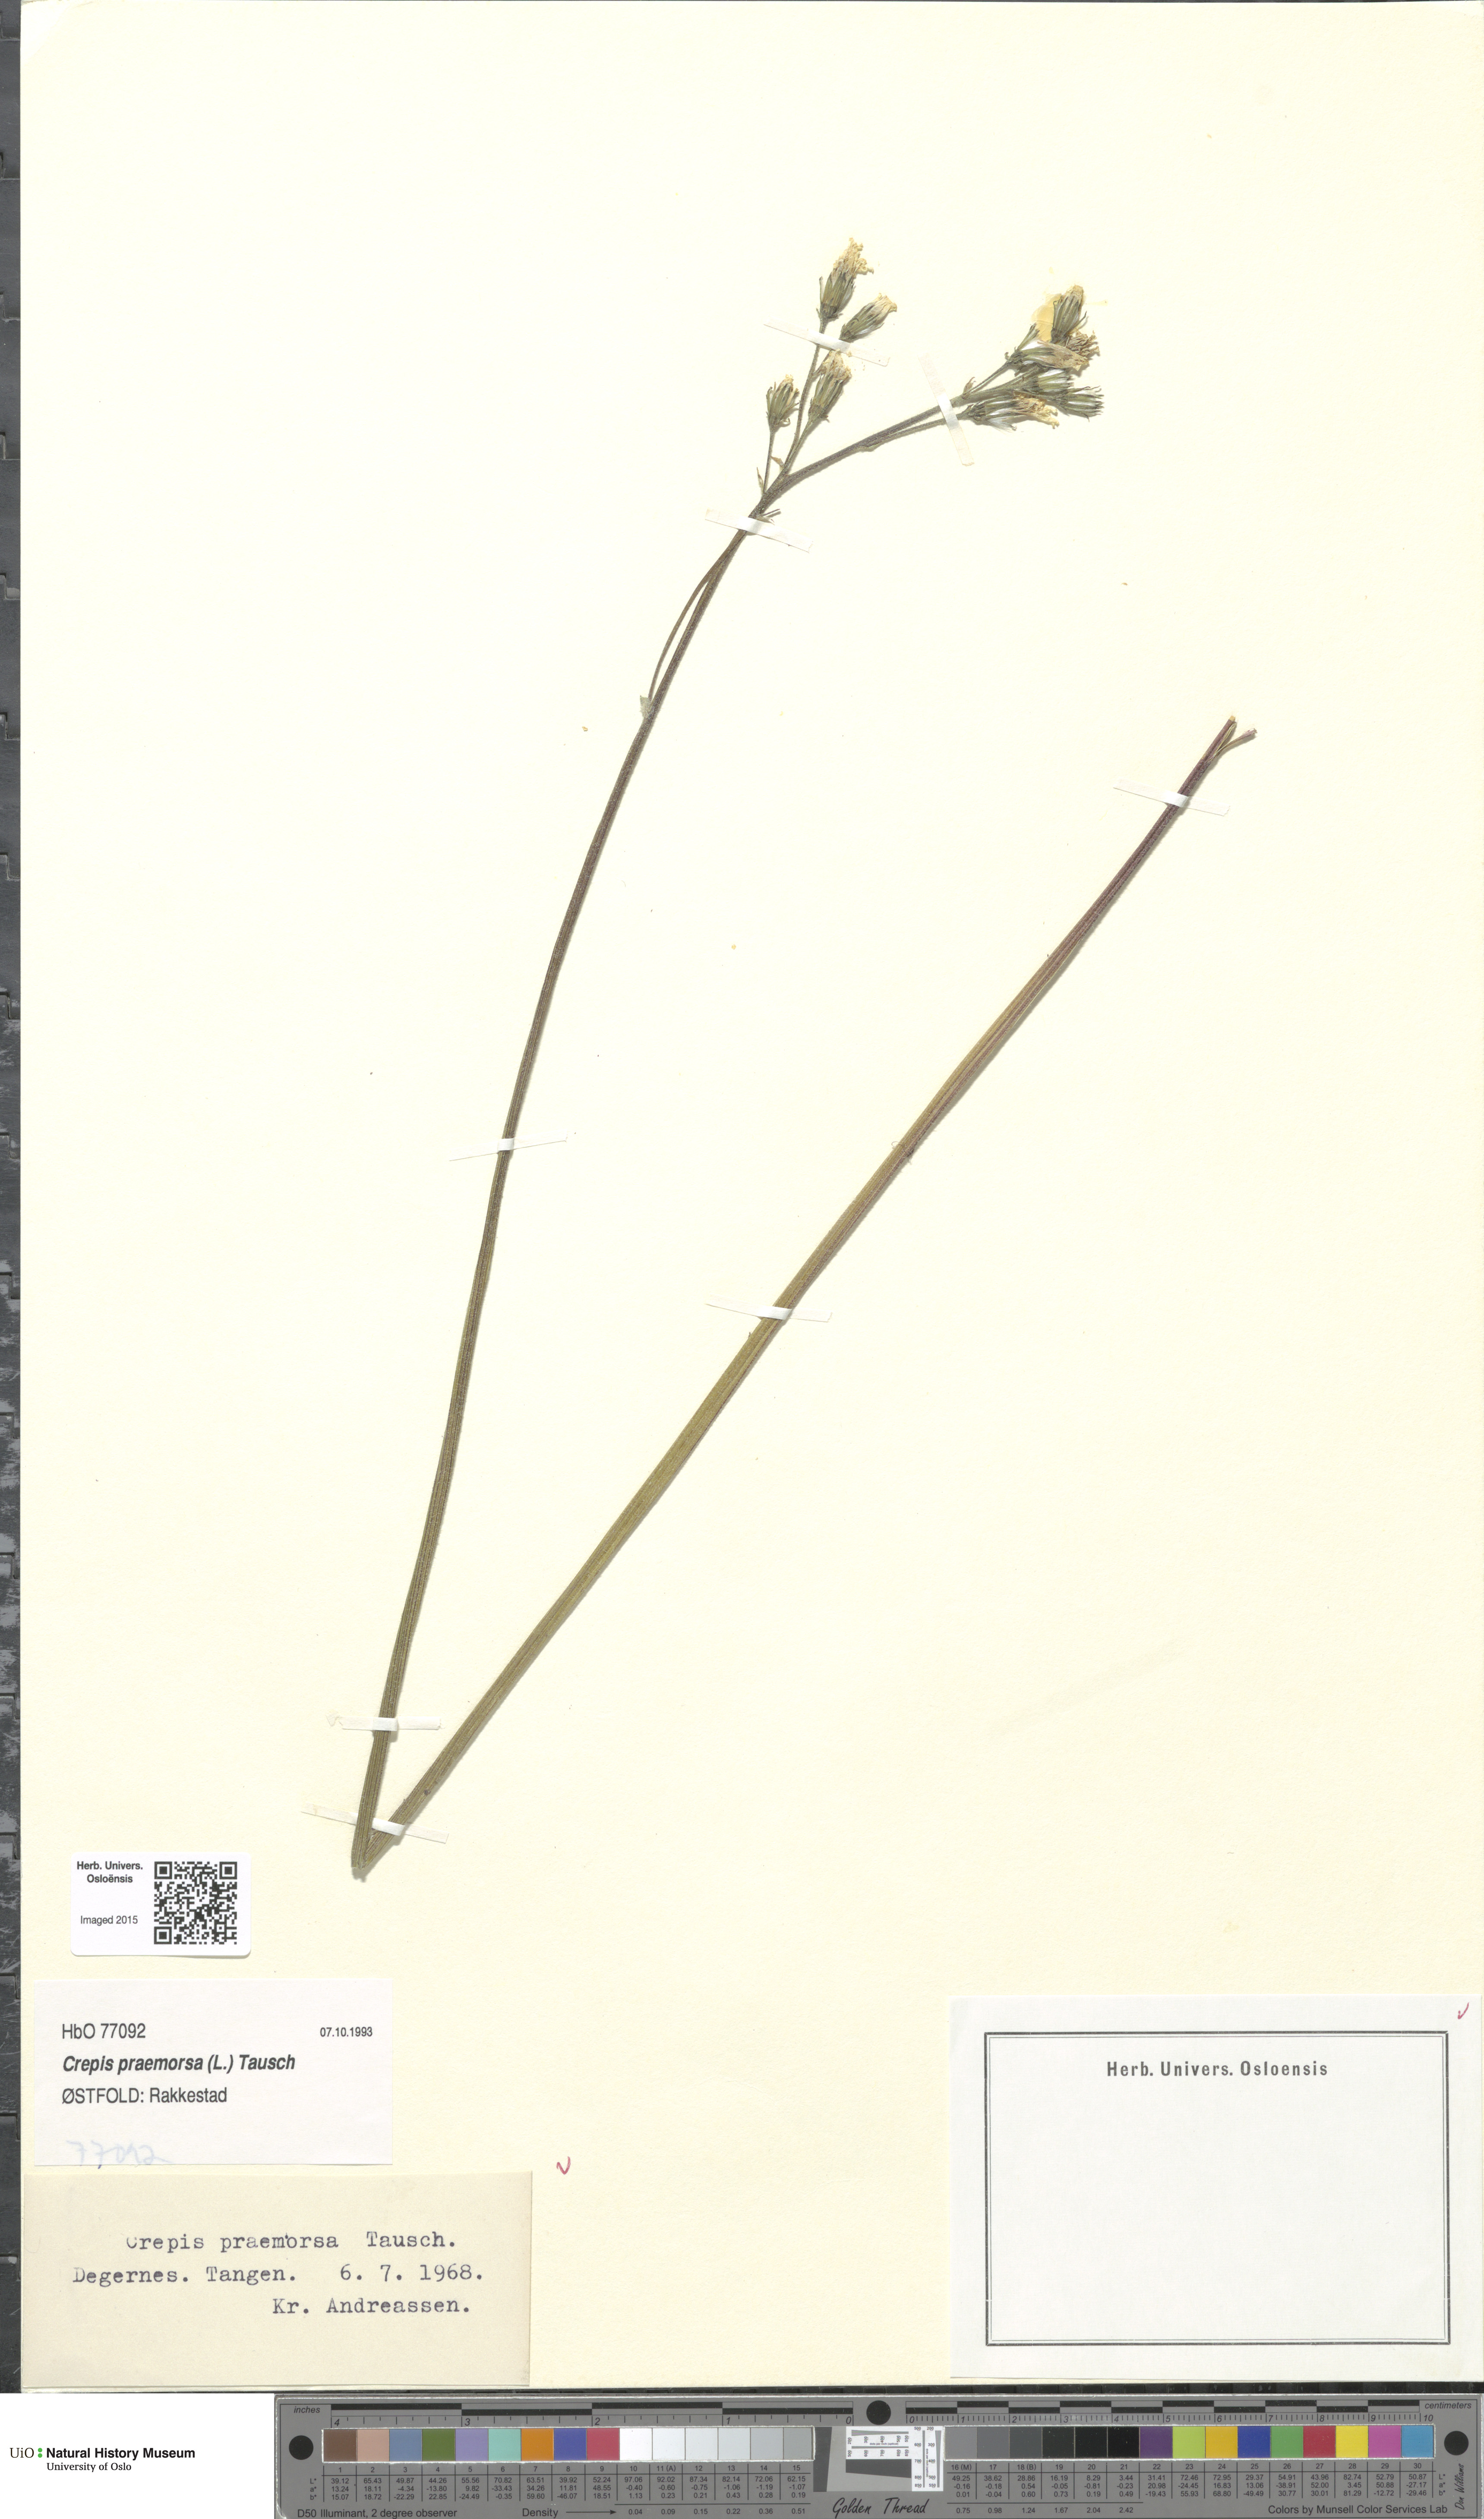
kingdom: Plantae
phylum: Tracheophyta
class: Magnoliopsida
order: Asterales
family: Asteraceae
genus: Crepis
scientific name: Crepis praemorsa
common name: Leafless hawk's-beard
